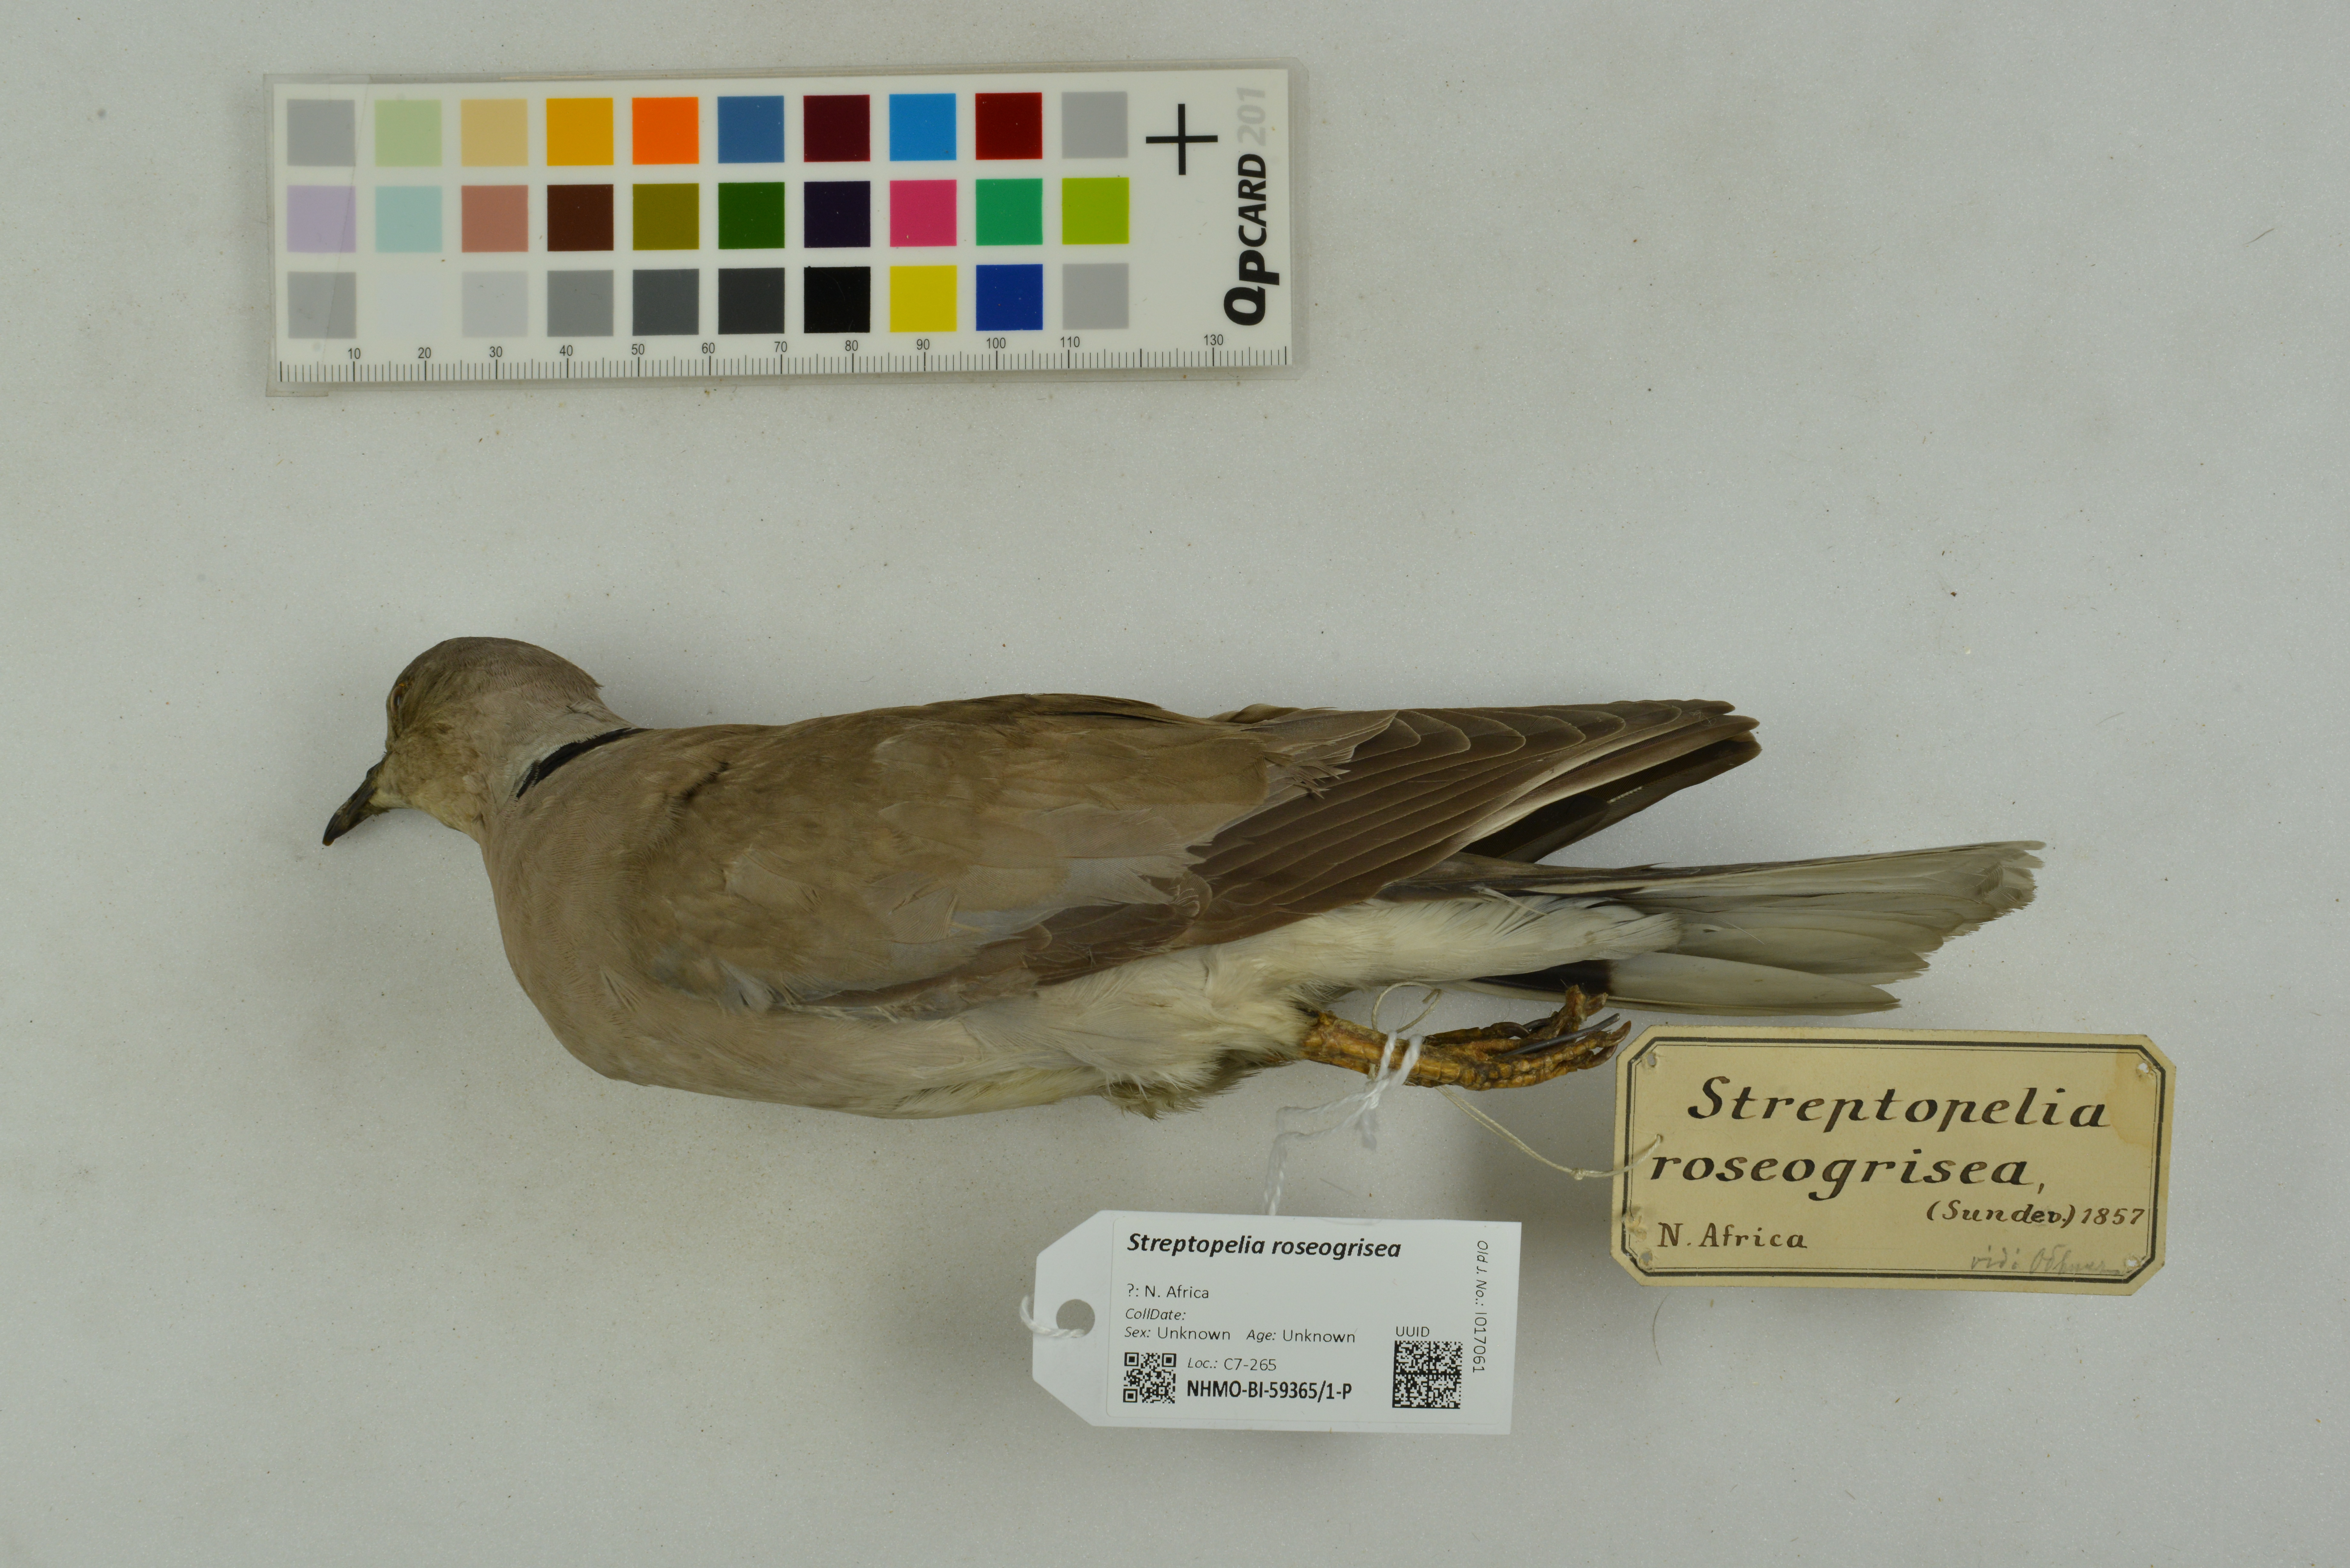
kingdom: Animalia
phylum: Chordata
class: Aves
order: Columbiformes
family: Columbidae
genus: Streptopelia
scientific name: Streptopelia roseogrisea
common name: African collared dove
